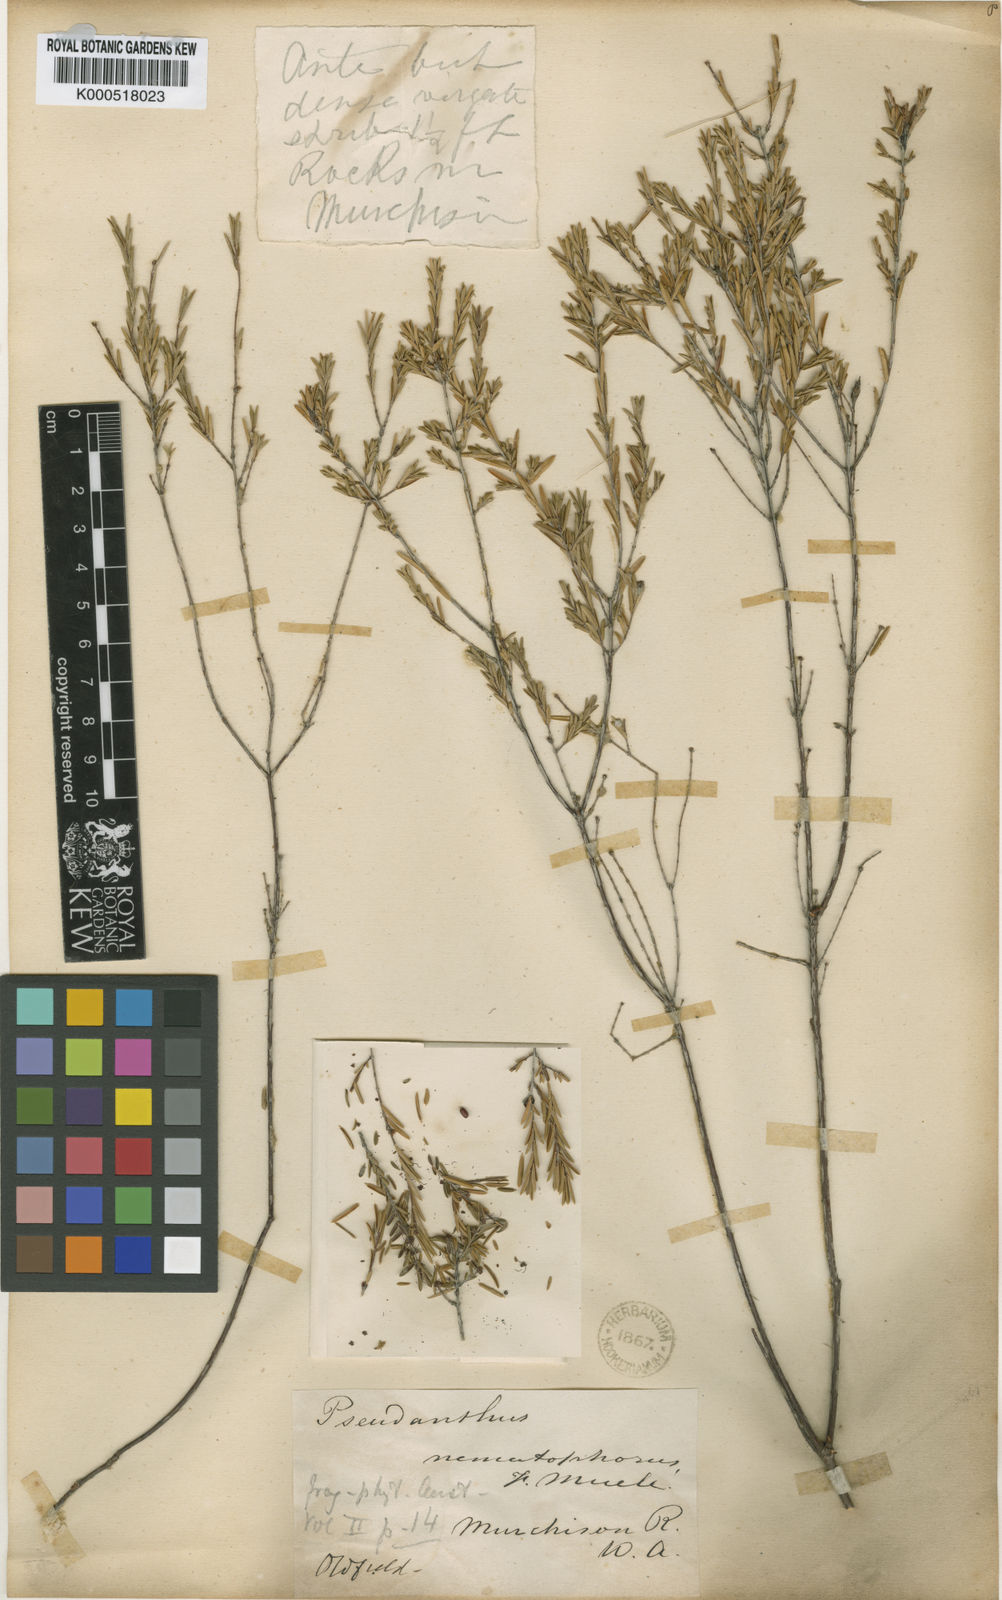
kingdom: Plantae
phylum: Tracheophyta
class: Magnoliopsida
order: Malpighiales
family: Picrodendraceae
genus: Stachystemon
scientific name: Stachystemon nematophorus
